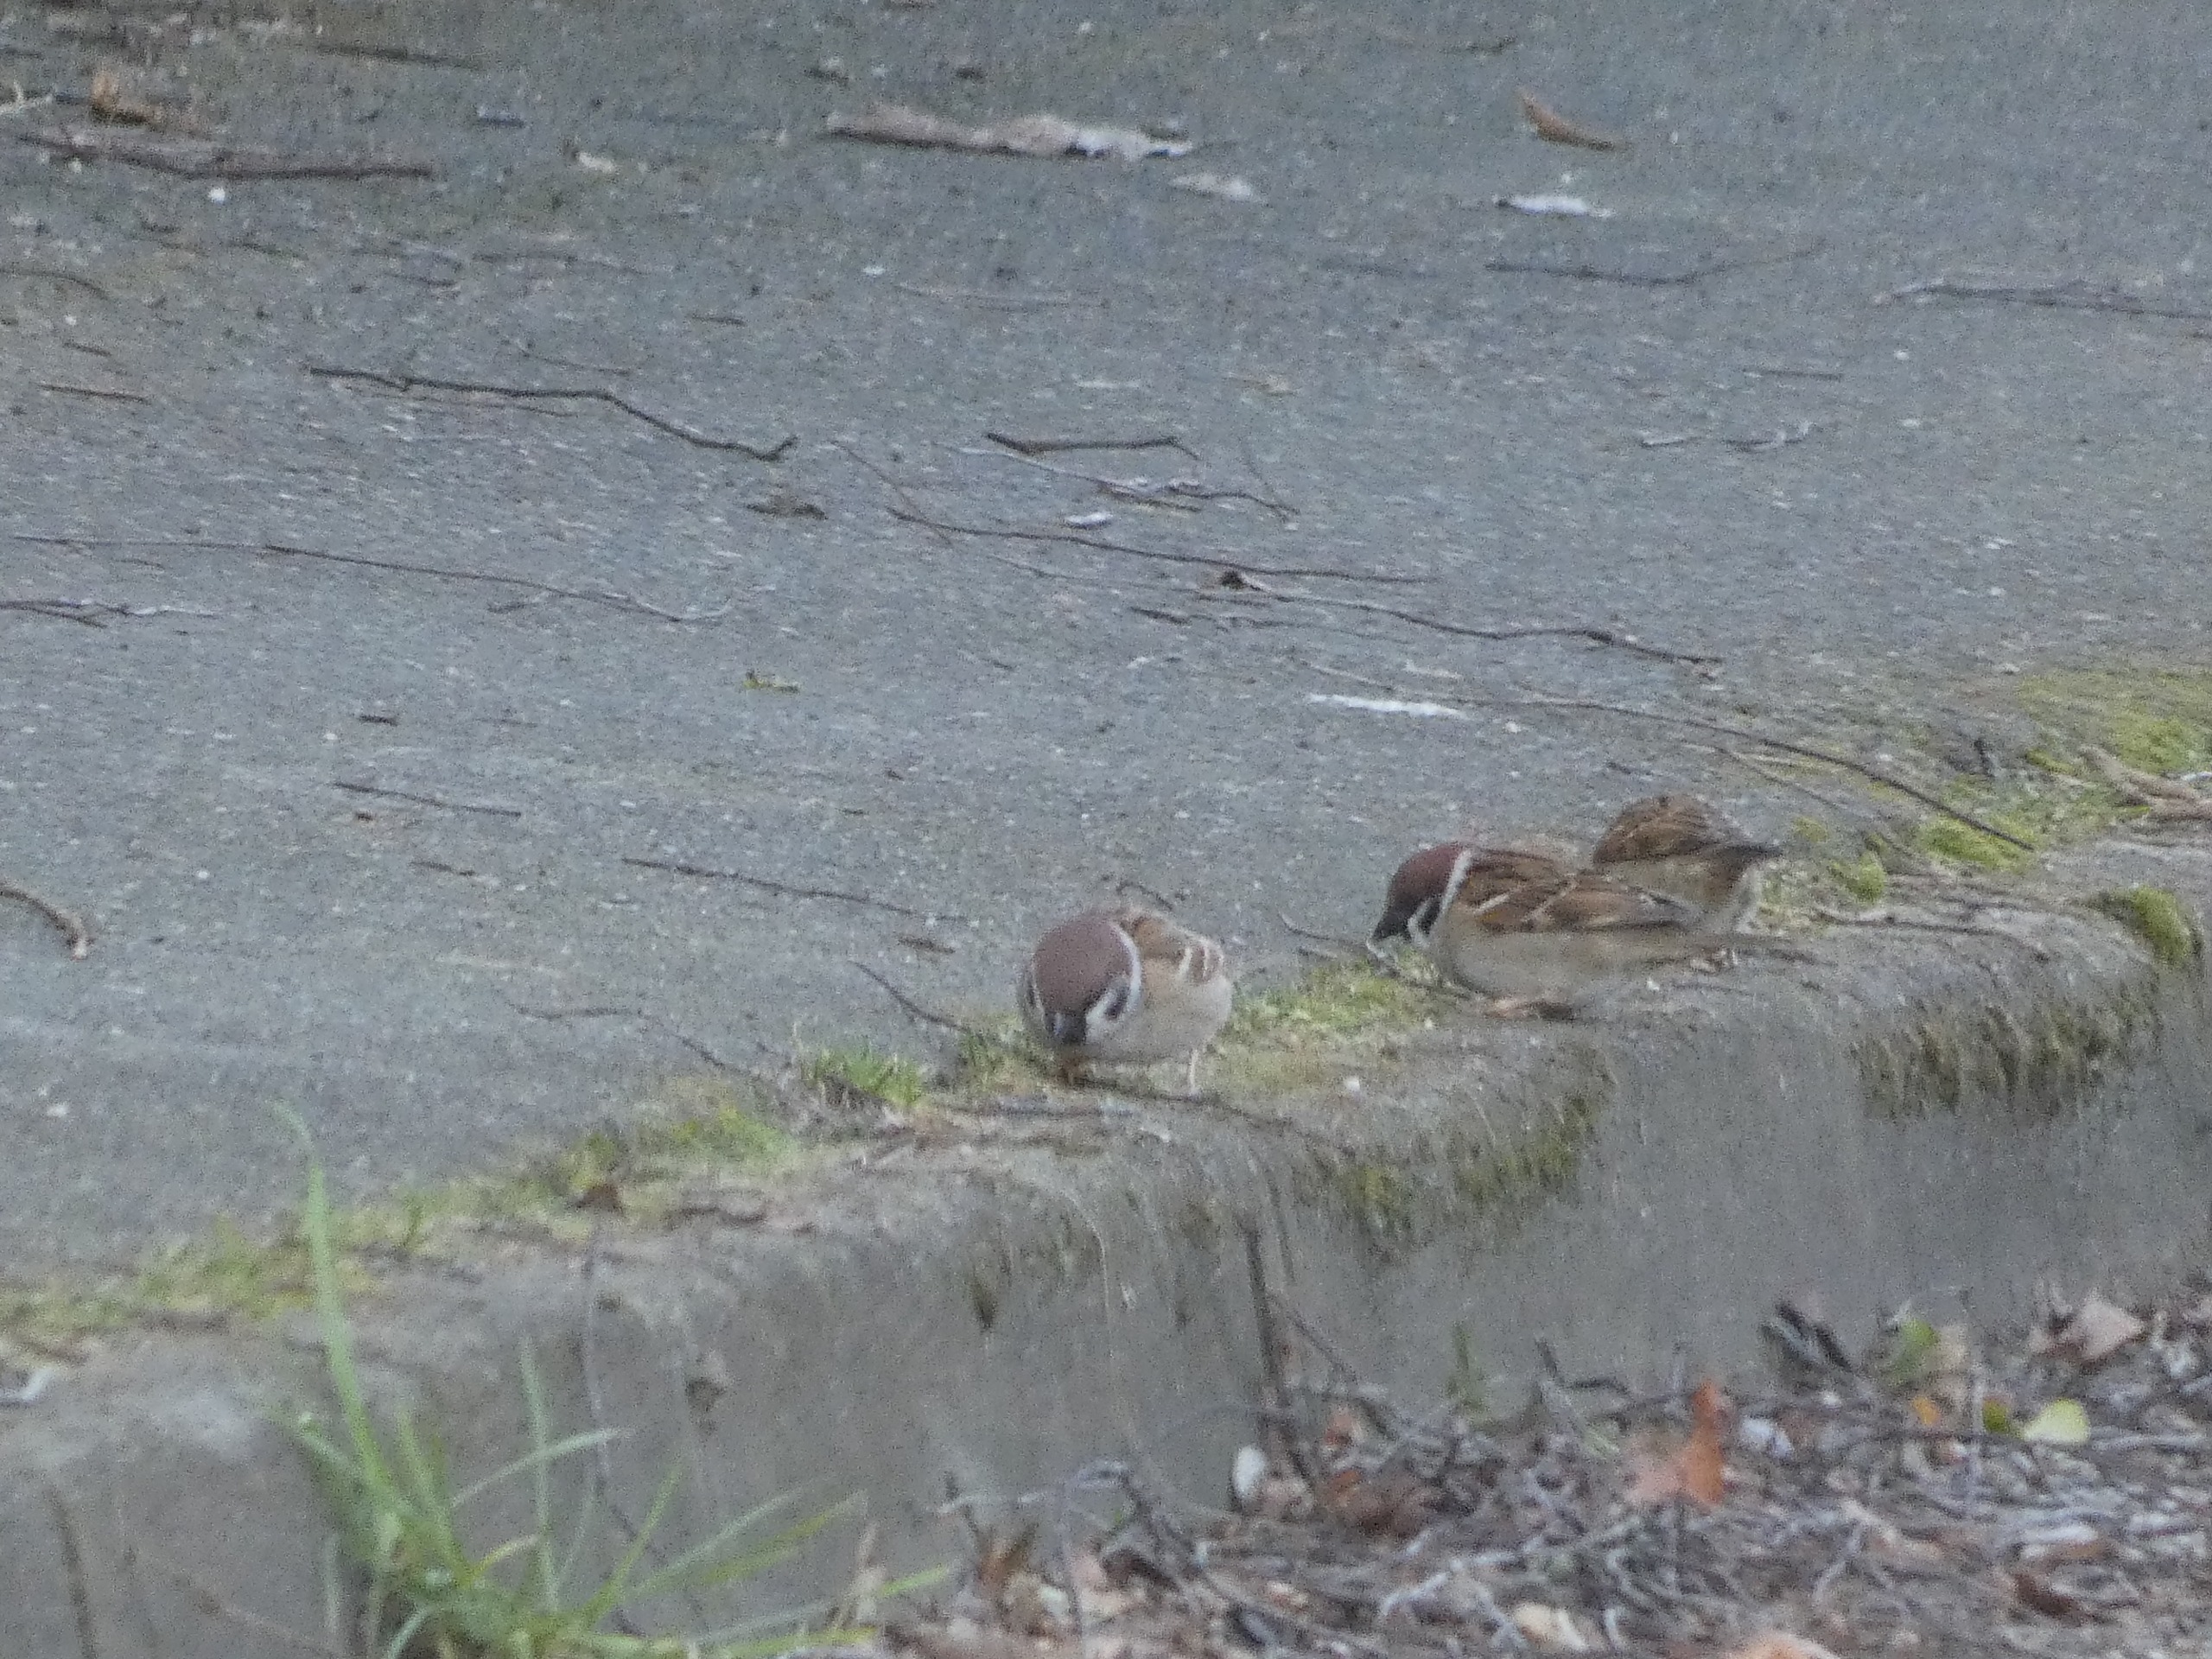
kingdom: Animalia
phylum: Chordata
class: Aves
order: Passeriformes
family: Passeridae
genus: Passer
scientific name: Passer montanus
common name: Skovspurv
